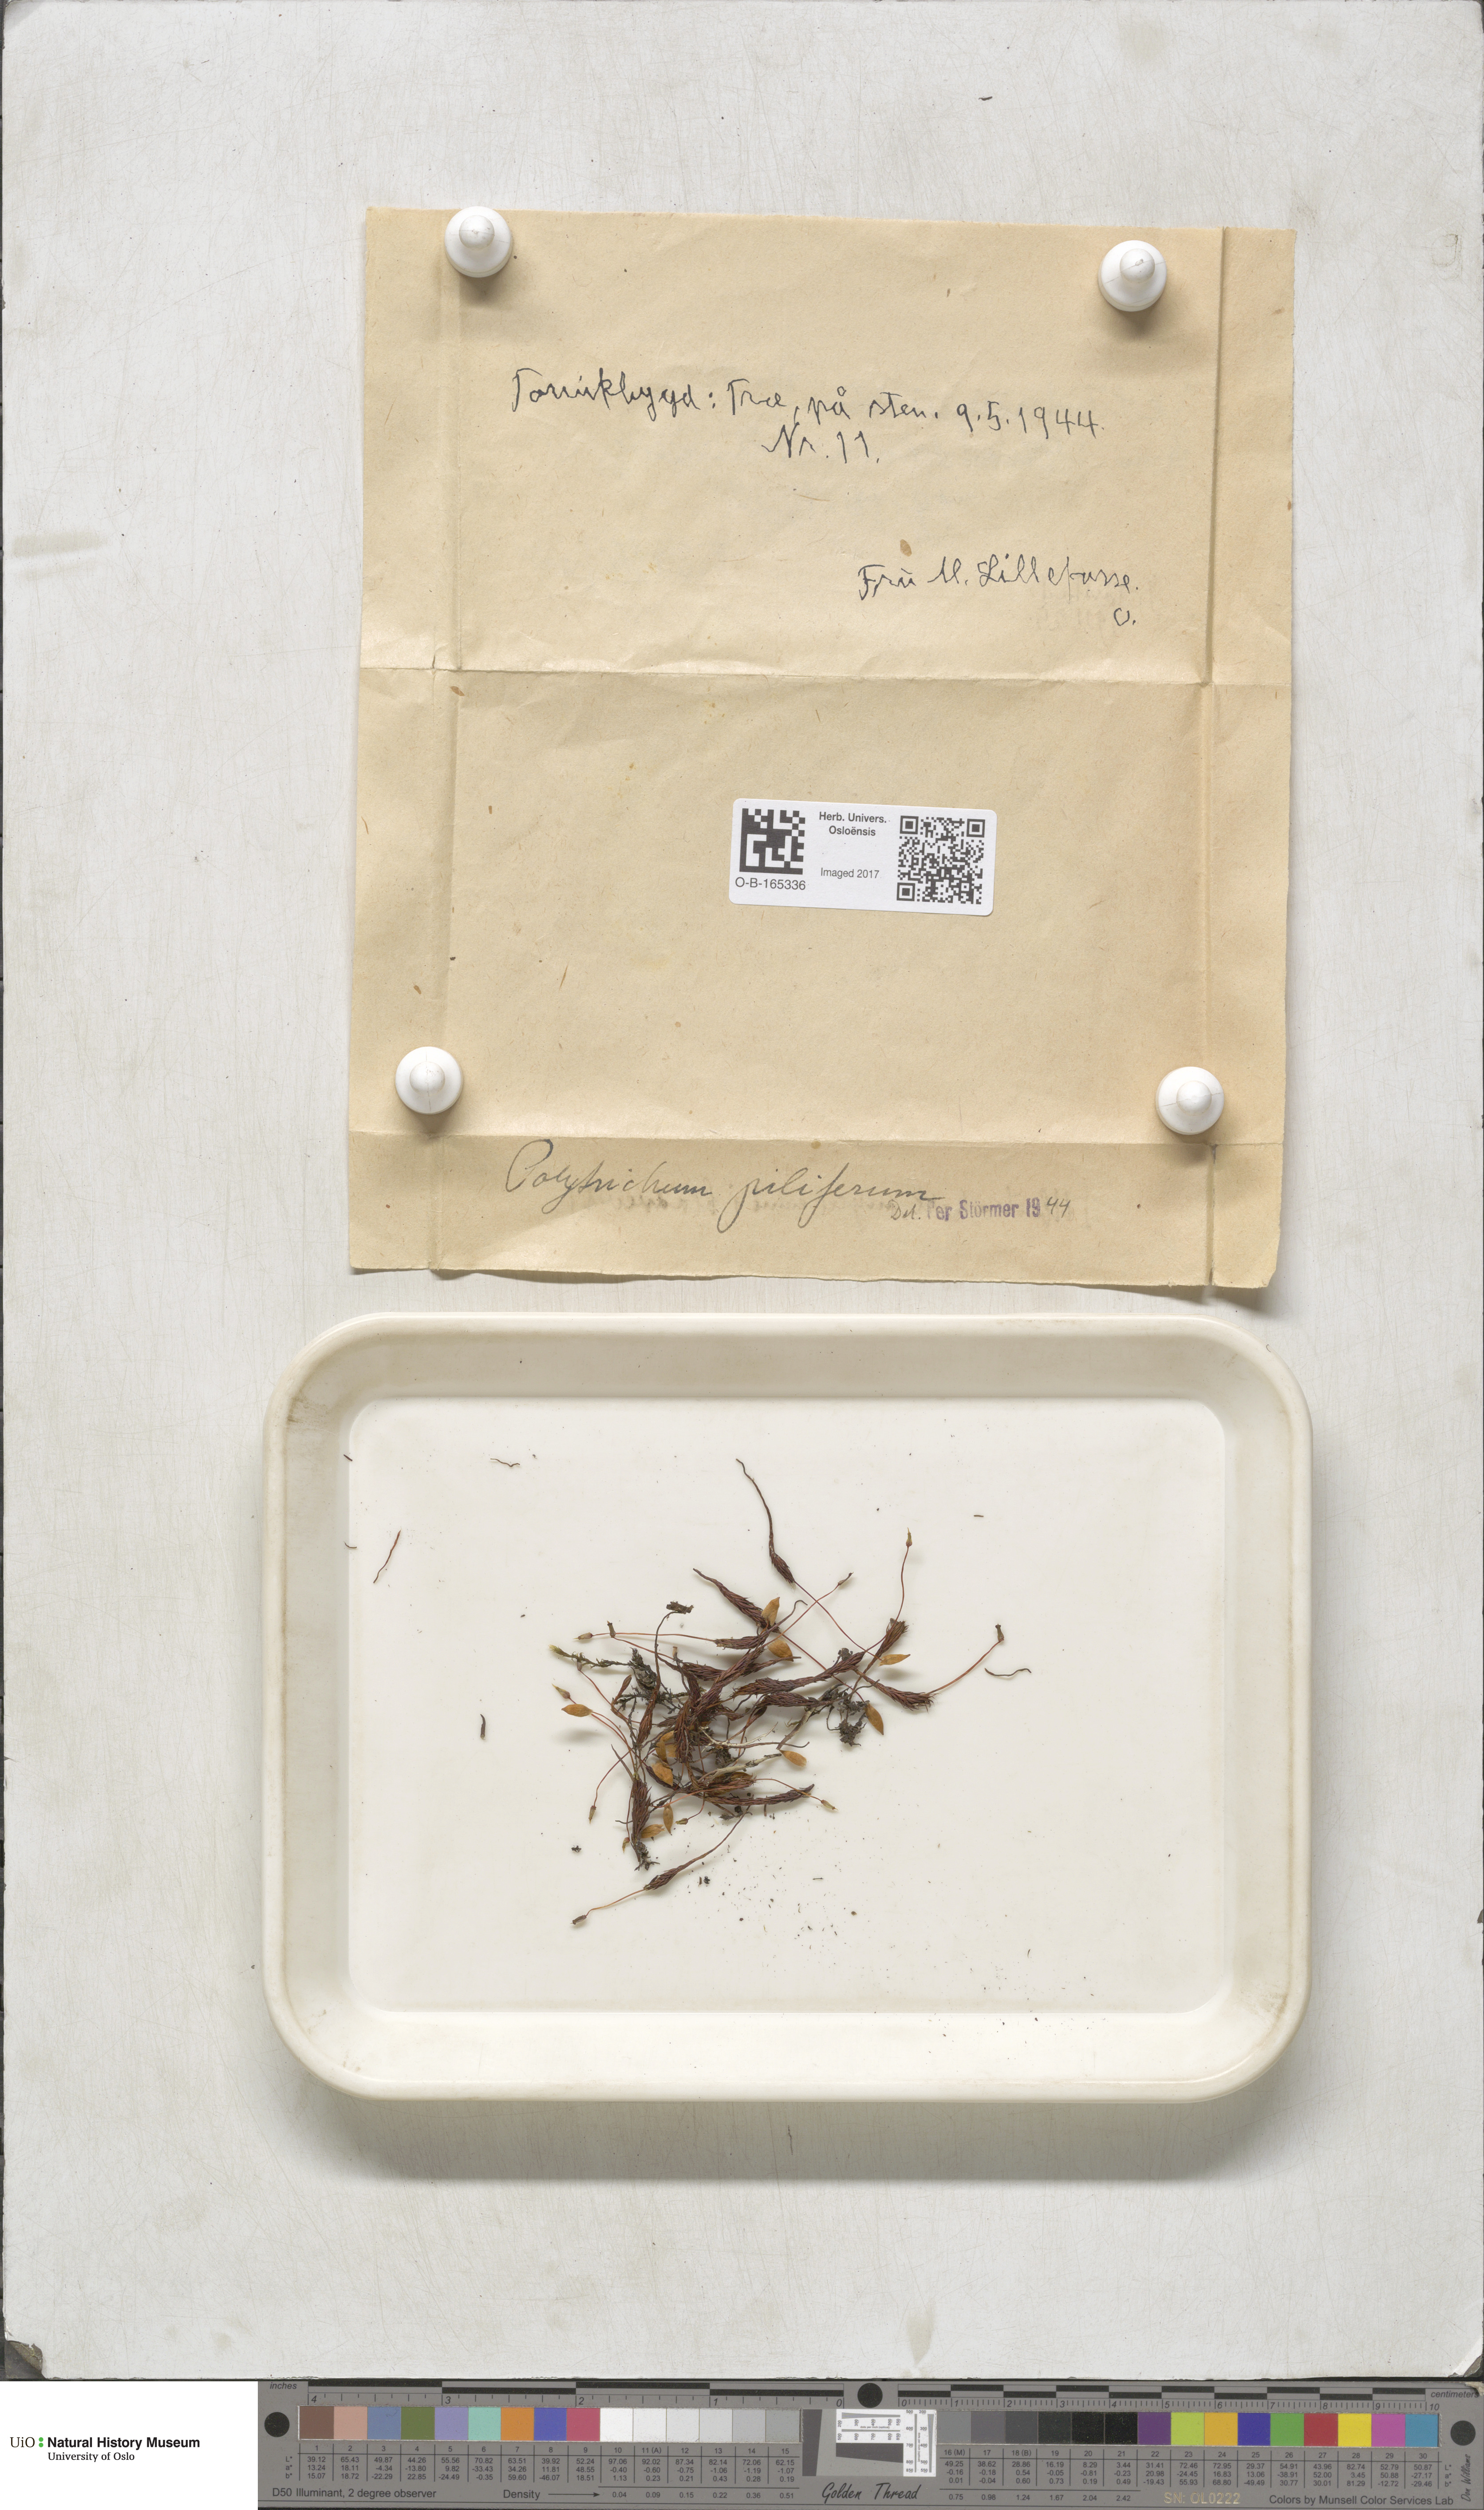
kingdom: Plantae
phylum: Bryophyta
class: Polytrichopsida
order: Polytrichales
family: Polytrichaceae
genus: Polytrichum
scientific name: Polytrichum piliferum
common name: Bristly haircap
